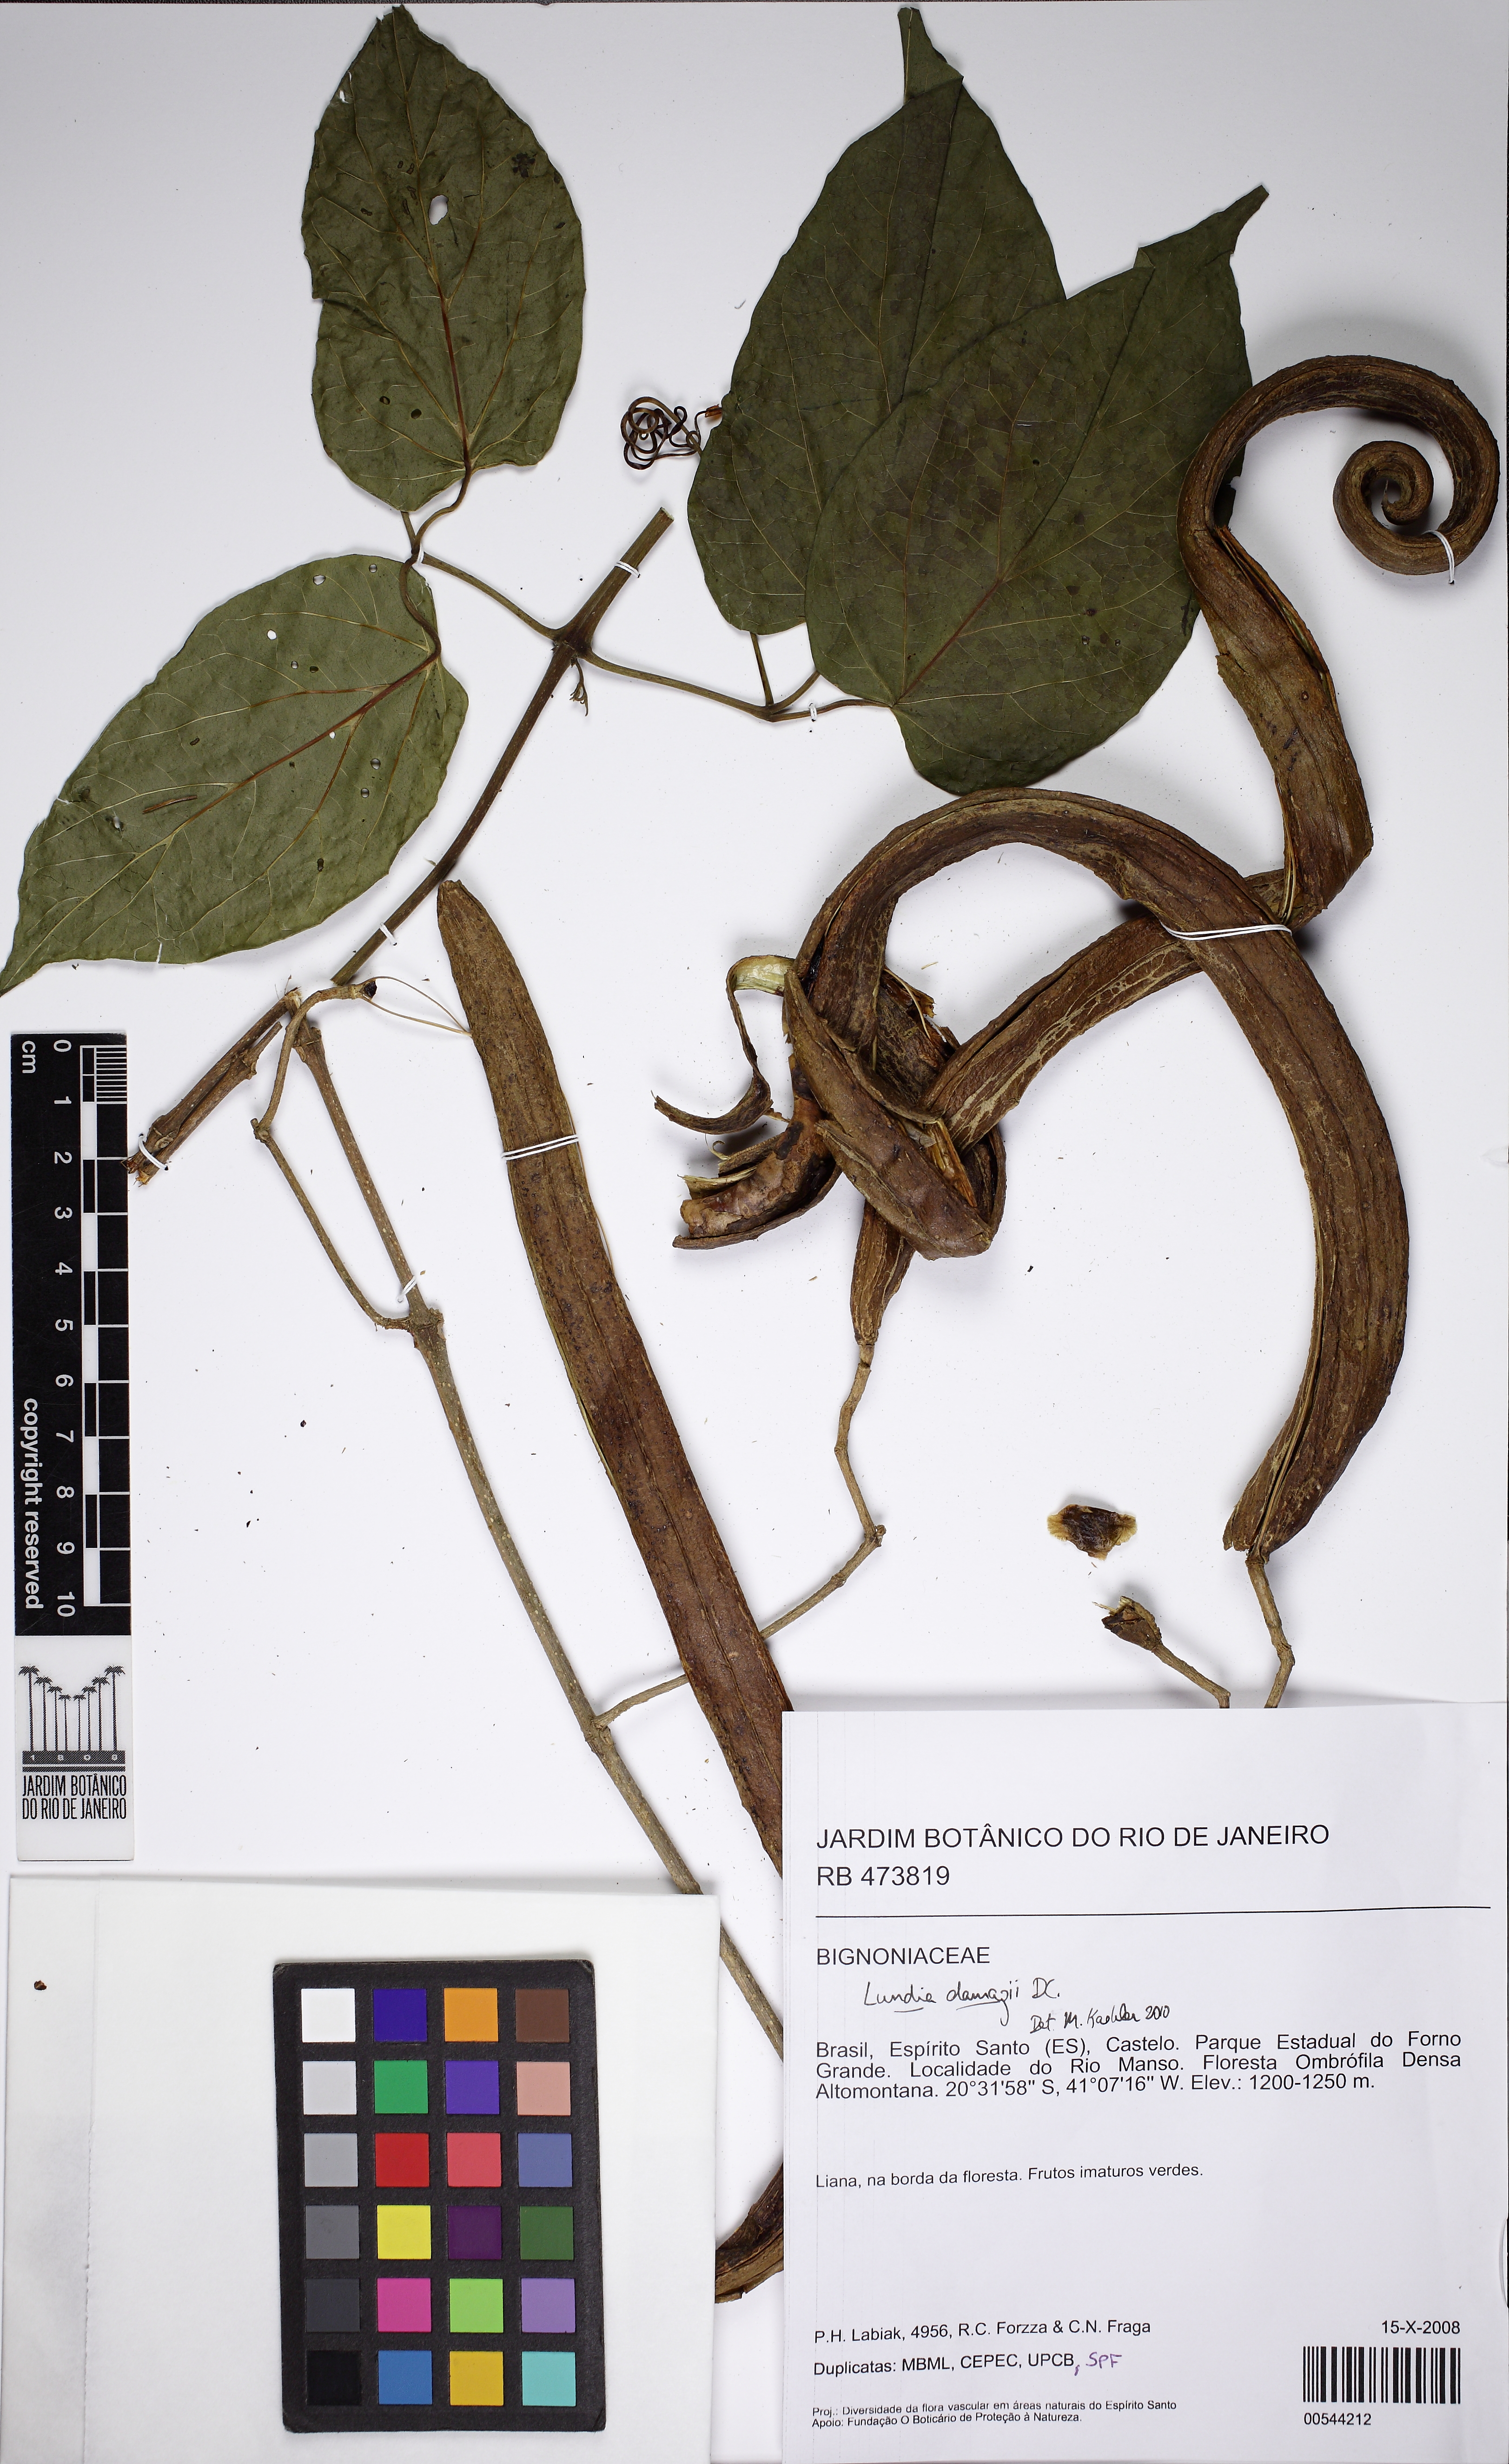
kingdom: Plantae
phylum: Tracheophyta
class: Magnoliopsida
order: Lamiales
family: Bignoniaceae
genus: Lundia
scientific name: Lundia damazioi
